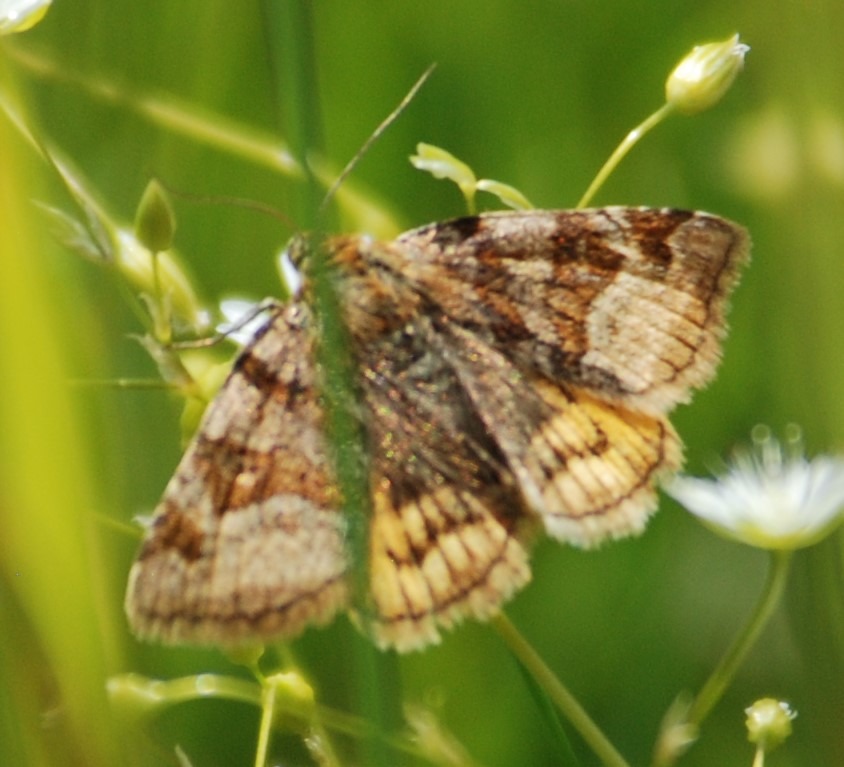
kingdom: Animalia
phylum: Arthropoda
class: Insecta
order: Lepidoptera
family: Erebidae
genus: Euclidia
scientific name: Euclidia glyphica
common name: Brun kløverugle
